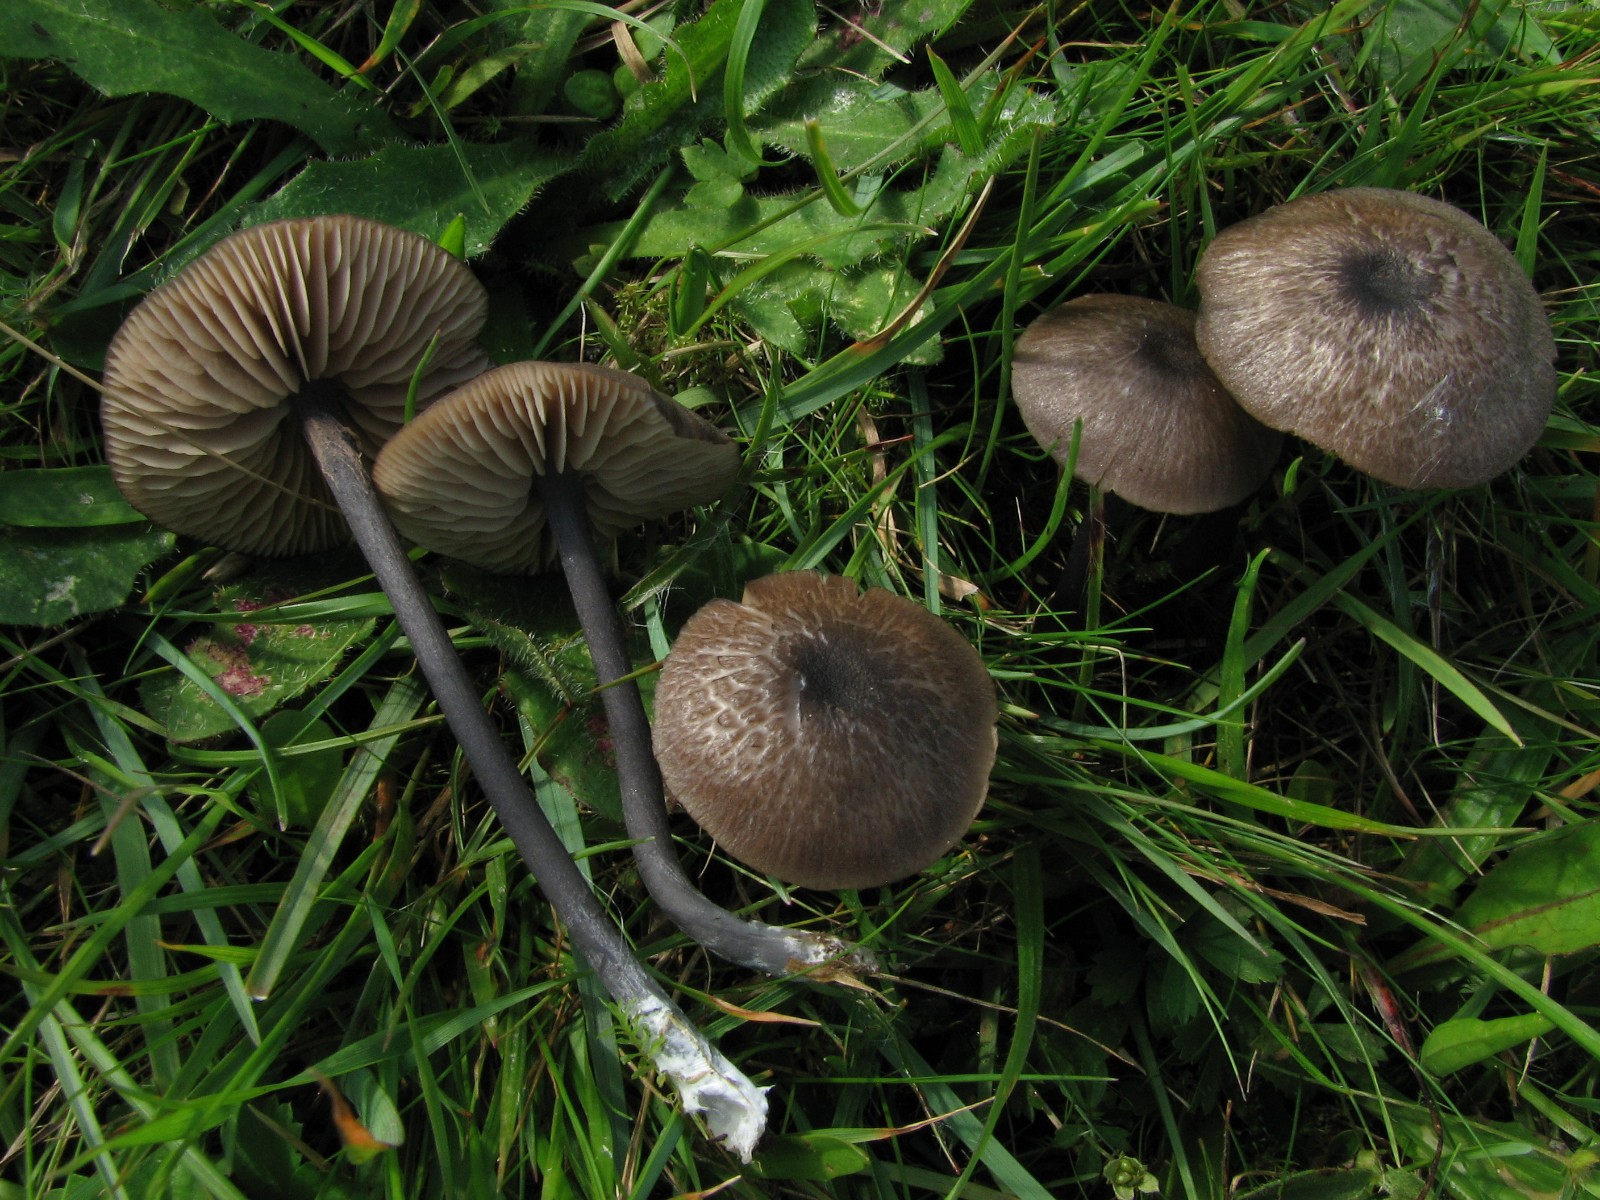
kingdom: Fungi
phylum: Basidiomycota
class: Agaricomycetes
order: Agaricales
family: Entolomataceae
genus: Entoloma
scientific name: Entoloma atrocoeruleum
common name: sortblå rødblad
